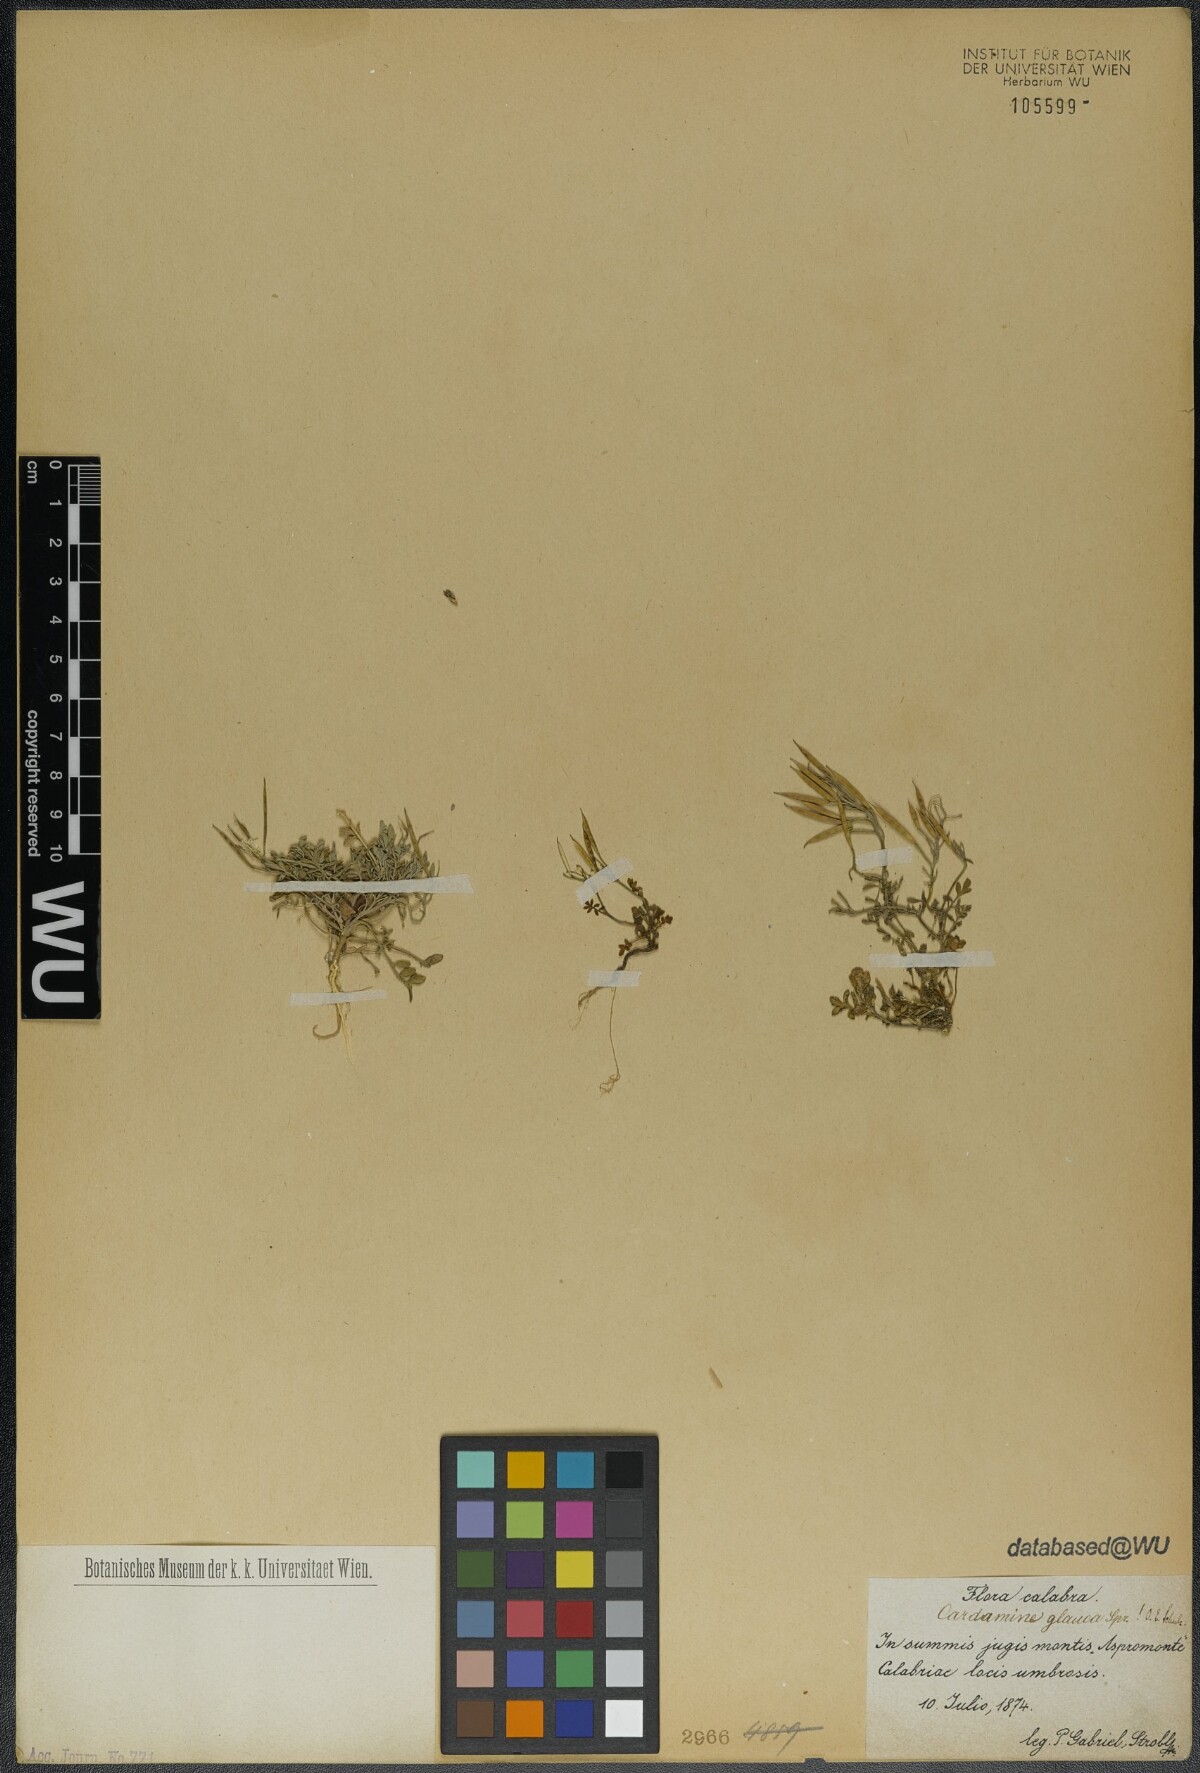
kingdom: Plantae
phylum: Tracheophyta
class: Magnoliopsida
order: Brassicales
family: Brassicaceae
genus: Cardamine
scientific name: Cardamine glauca
